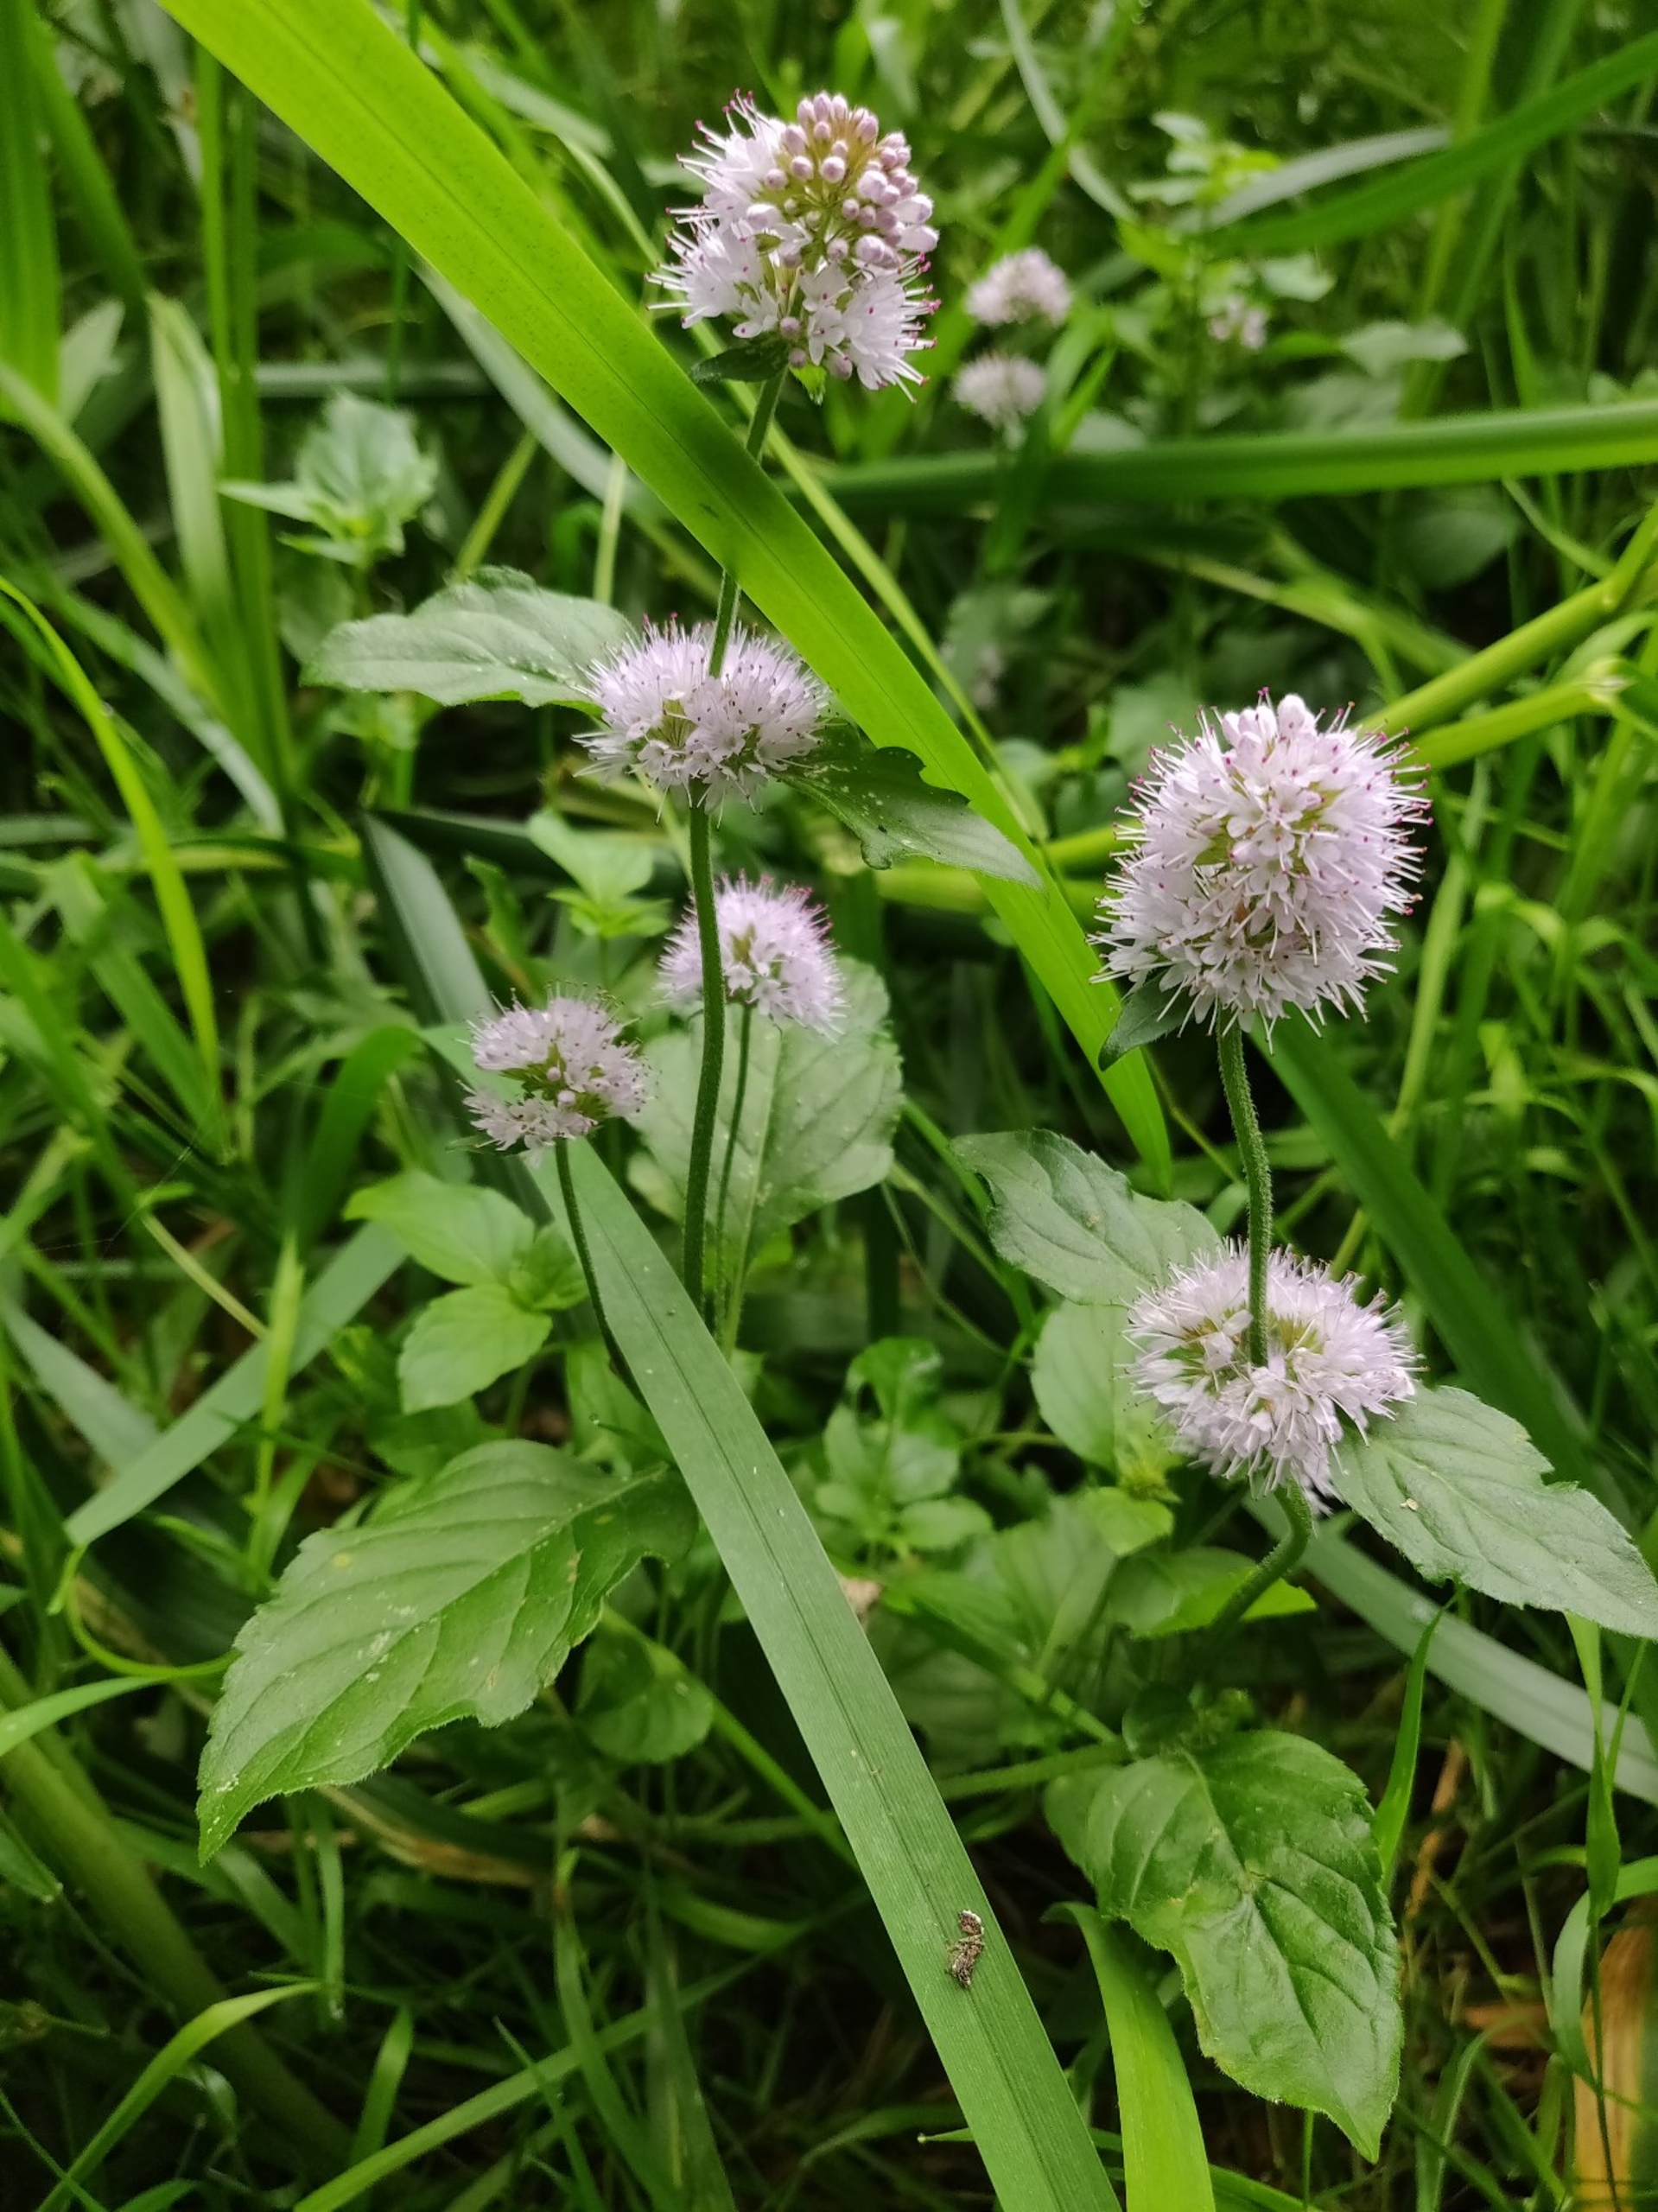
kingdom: Plantae
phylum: Tracheophyta
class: Magnoliopsida
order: Lamiales
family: Lamiaceae
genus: Mentha
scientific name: Mentha aquatica
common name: Vand-mynte
